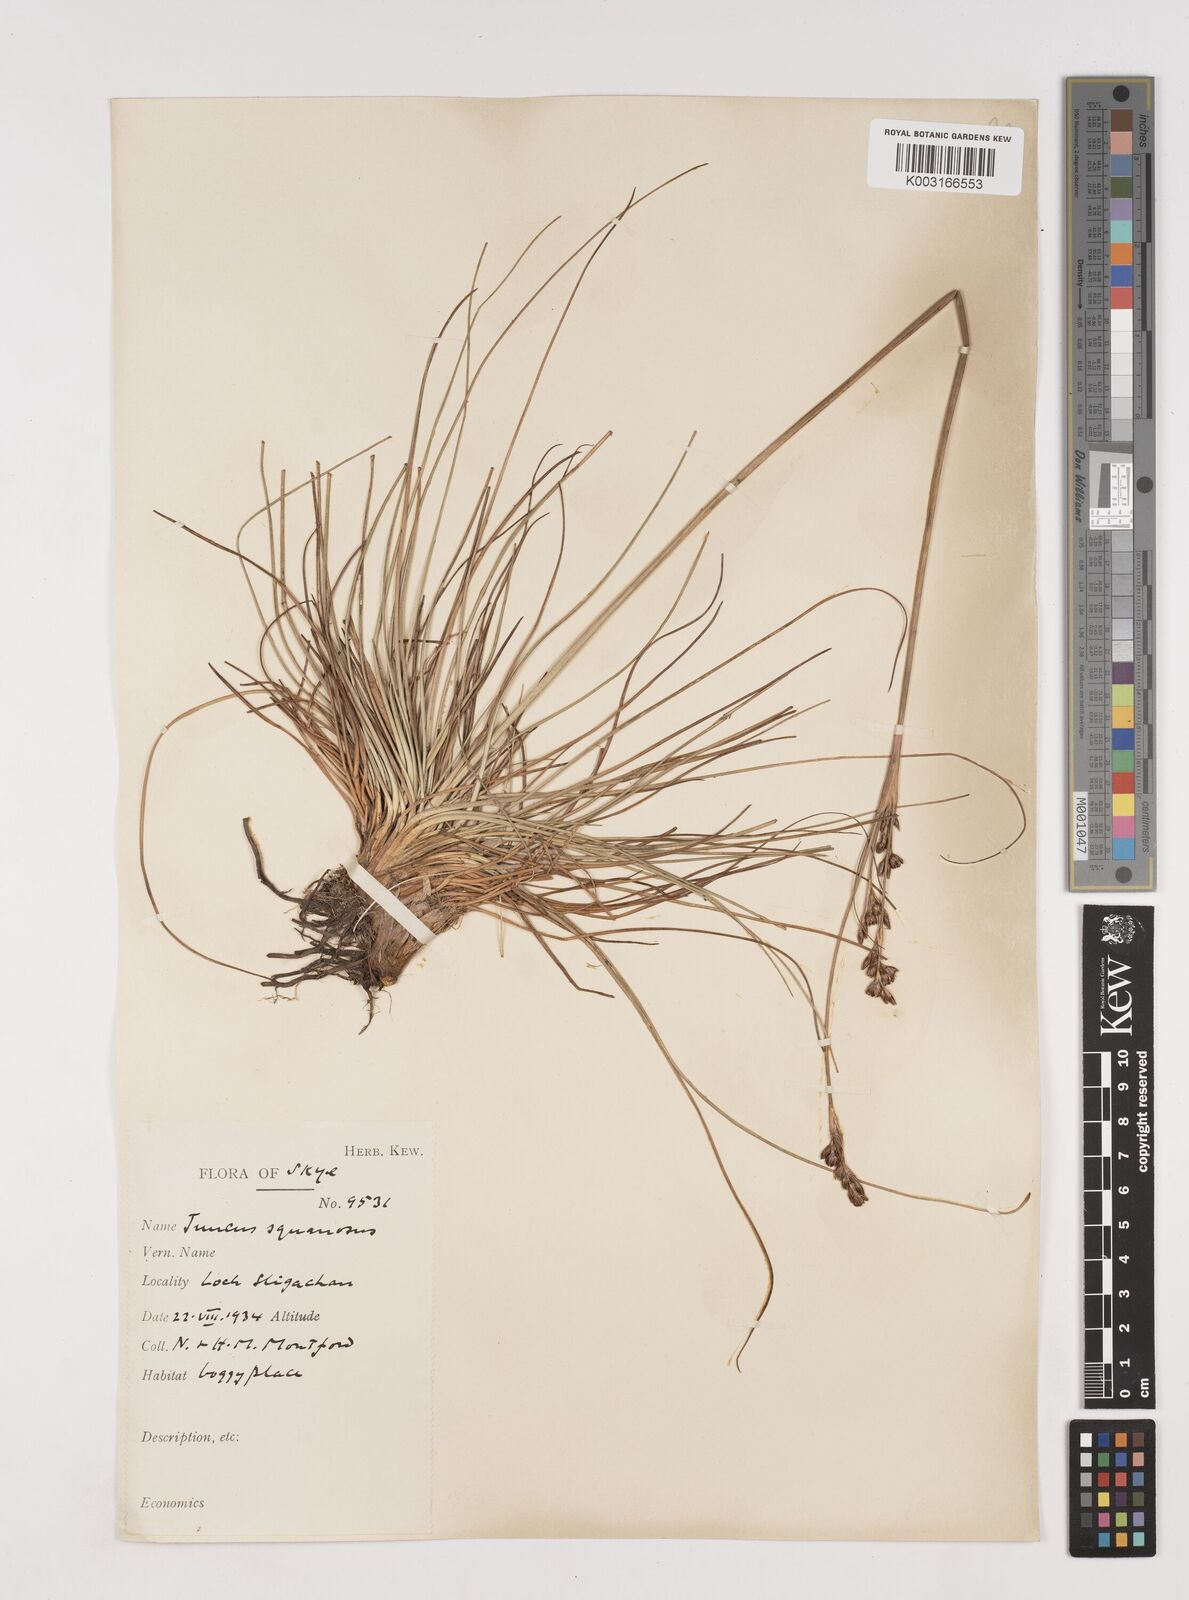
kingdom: Plantae
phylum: Tracheophyta
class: Liliopsida
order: Poales
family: Juncaceae
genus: Juncus
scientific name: Juncus squarrosus
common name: Heath rush
